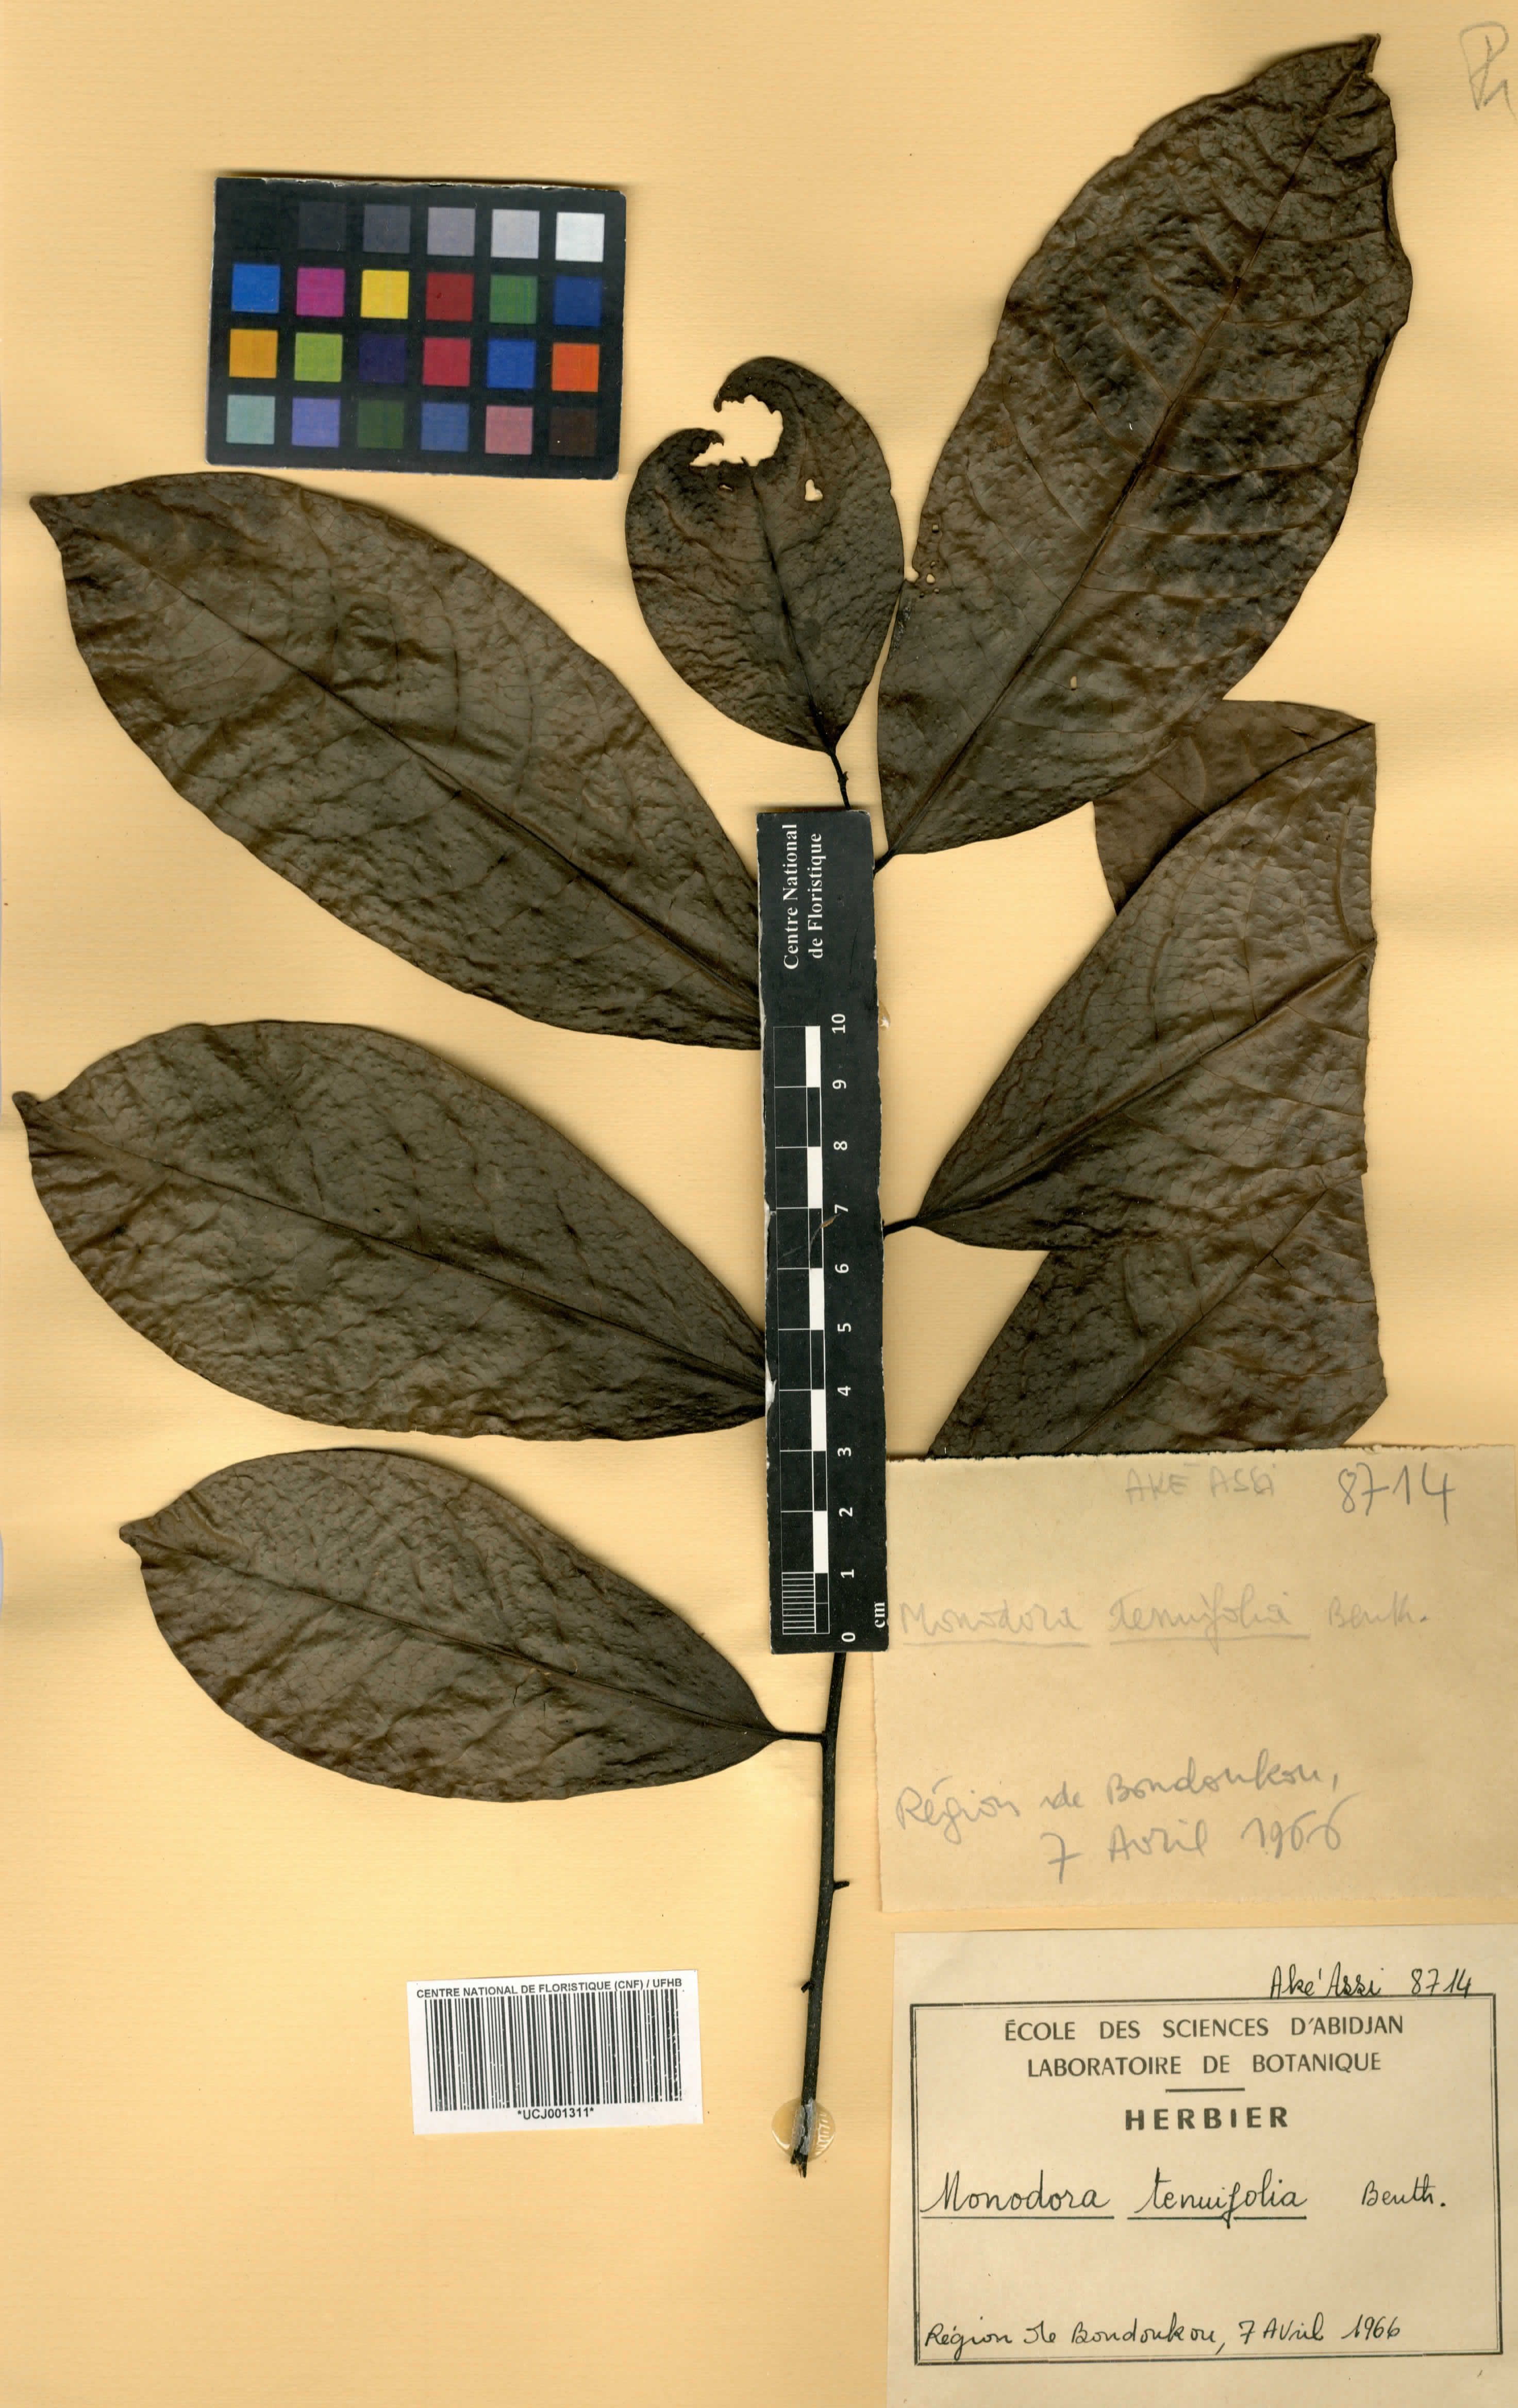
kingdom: Plantae
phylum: Tracheophyta
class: Magnoliopsida
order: Magnoliales
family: Annonaceae
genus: Monodora
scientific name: Monodora tenuifolia
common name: Orchidtree
